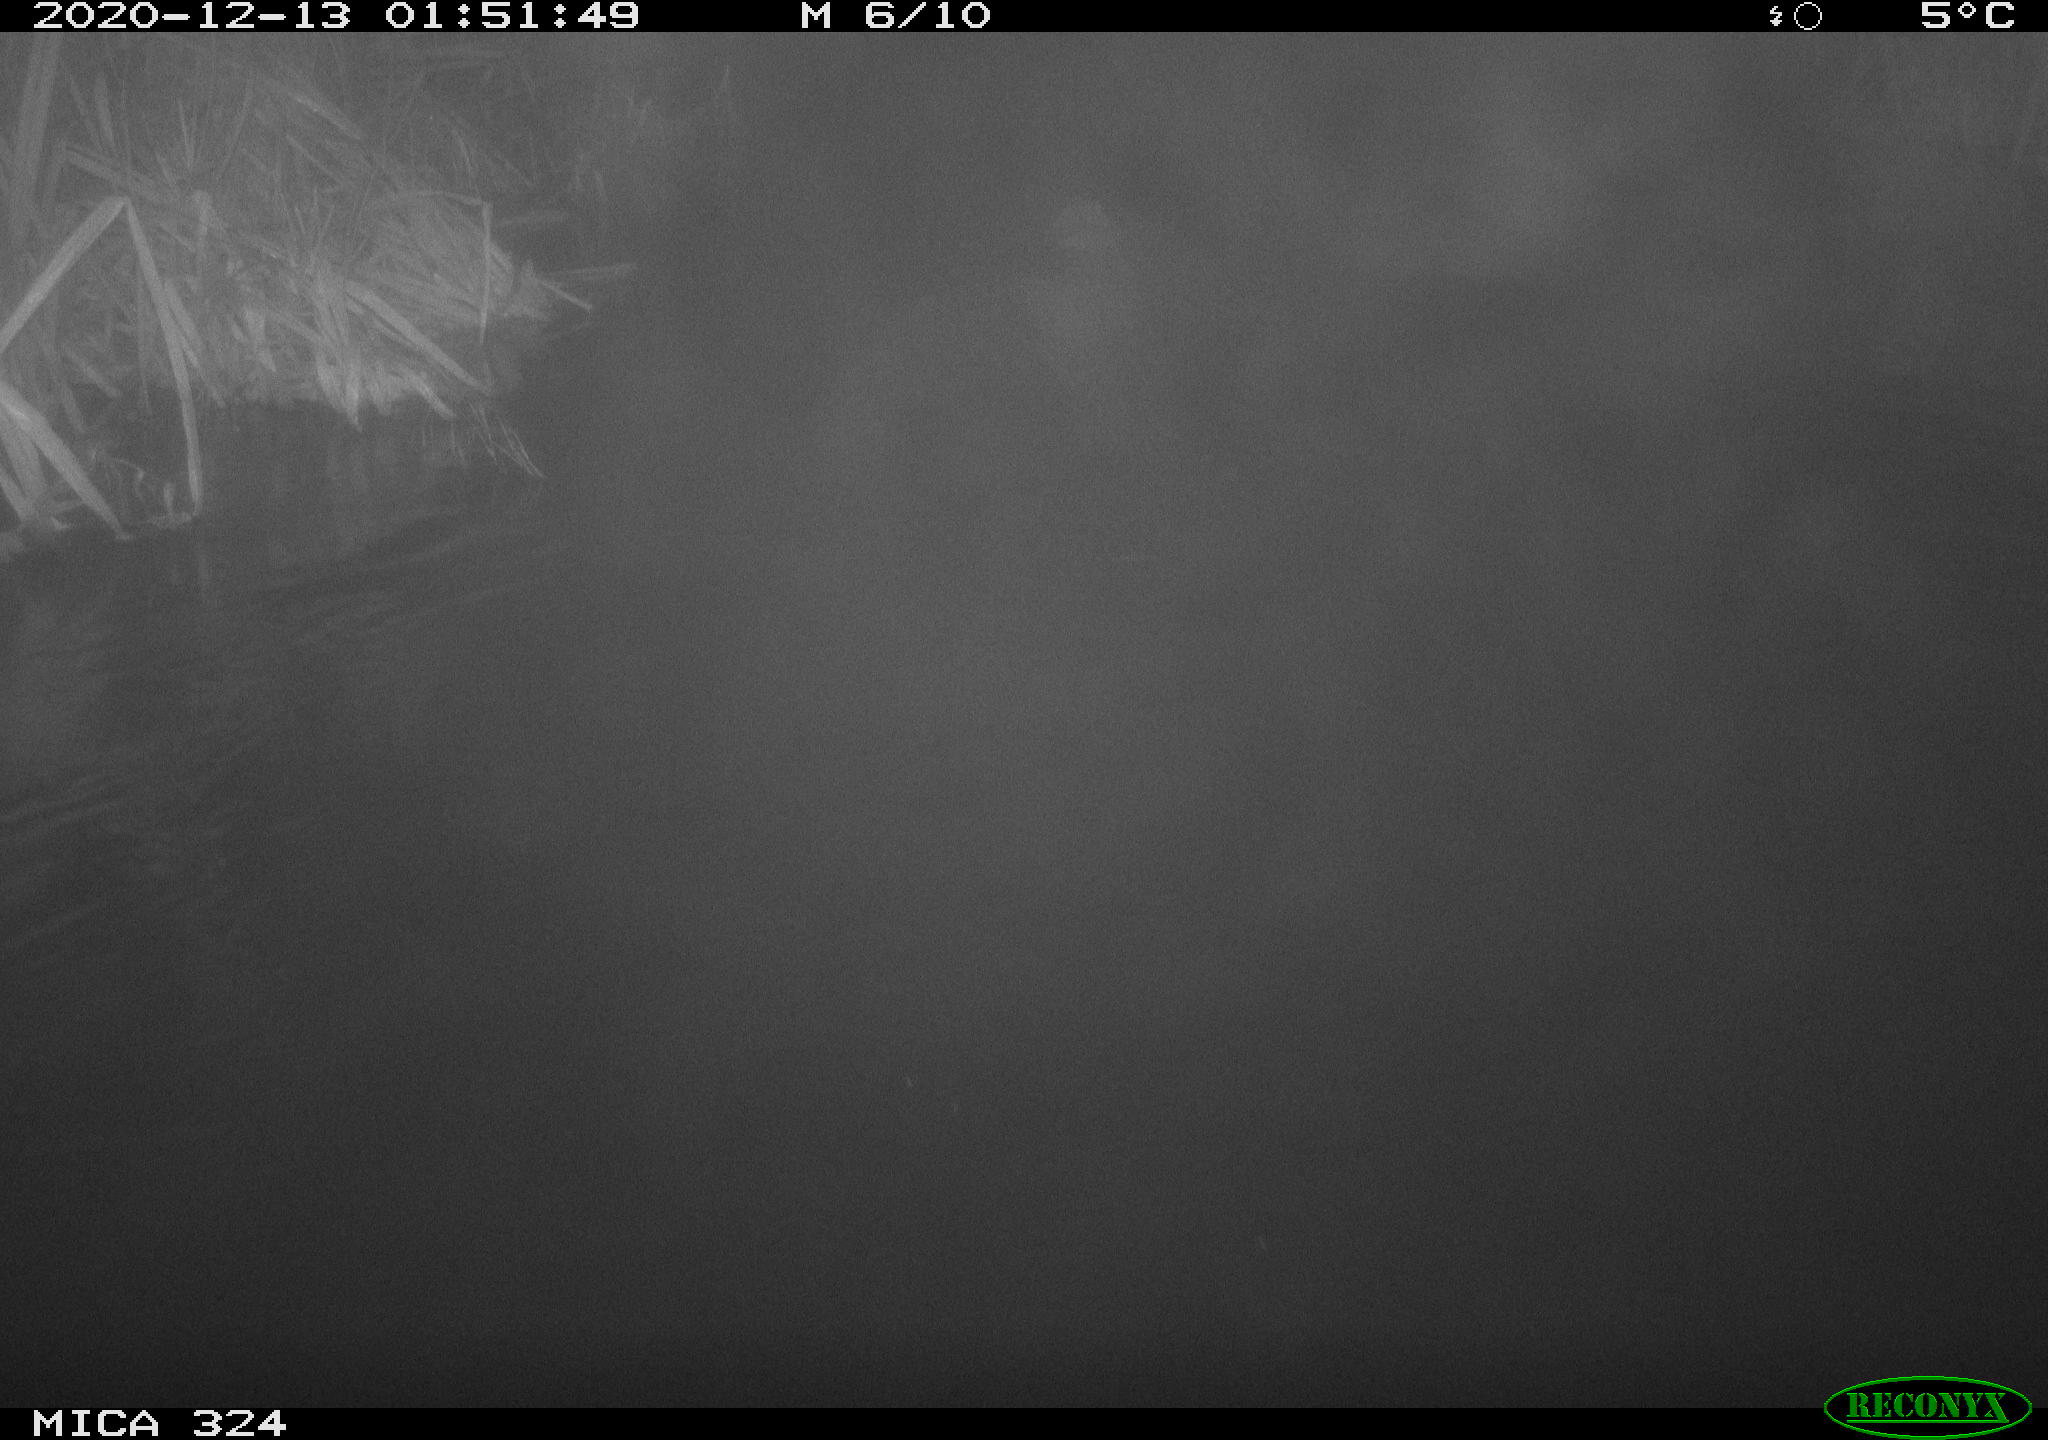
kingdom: Animalia
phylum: Chordata
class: Mammalia
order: Rodentia
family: Myocastoridae
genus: Myocastor
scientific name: Myocastor coypus
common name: Coypu
